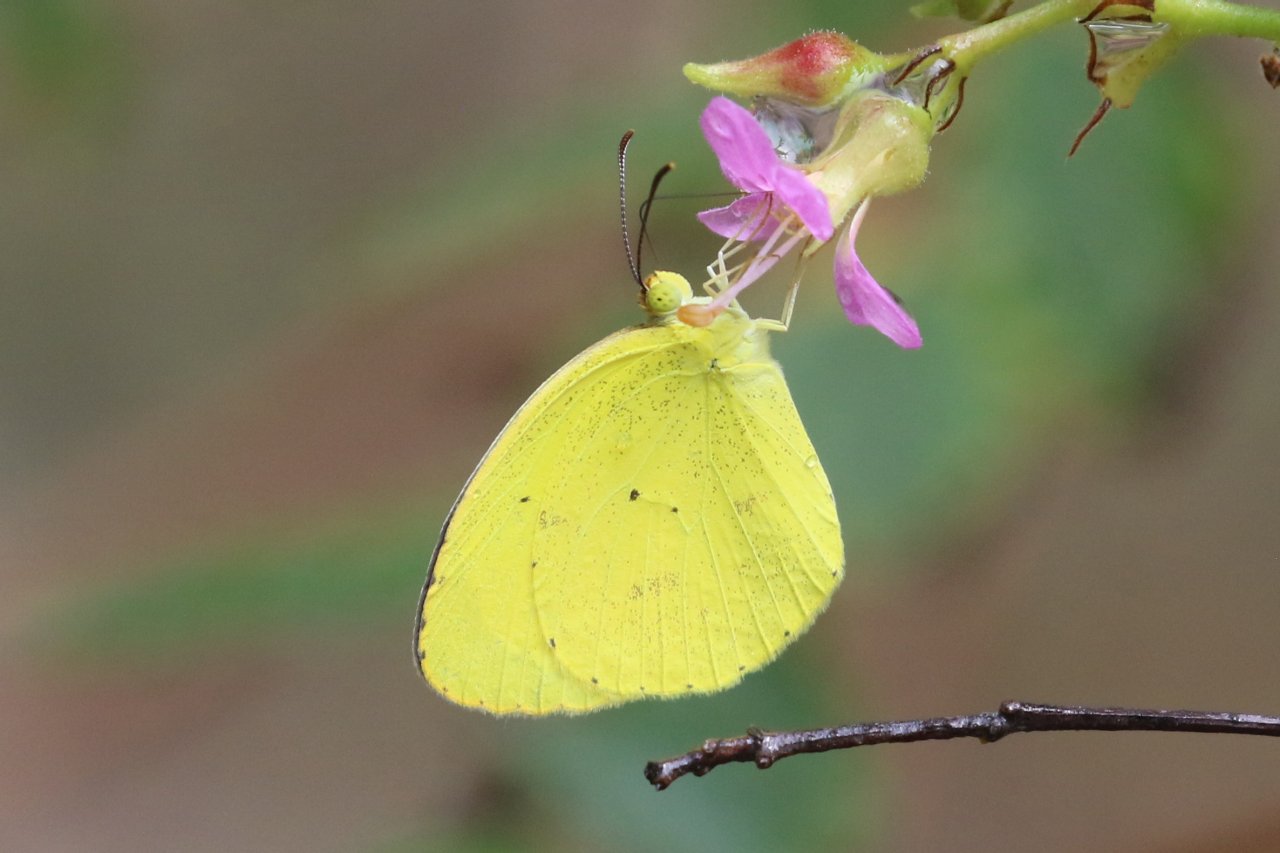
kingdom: Animalia
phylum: Arthropoda
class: Insecta
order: Lepidoptera
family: Pieridae
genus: Pyrisitia
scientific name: Pyrisitia nise
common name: Mimosa Yellow
